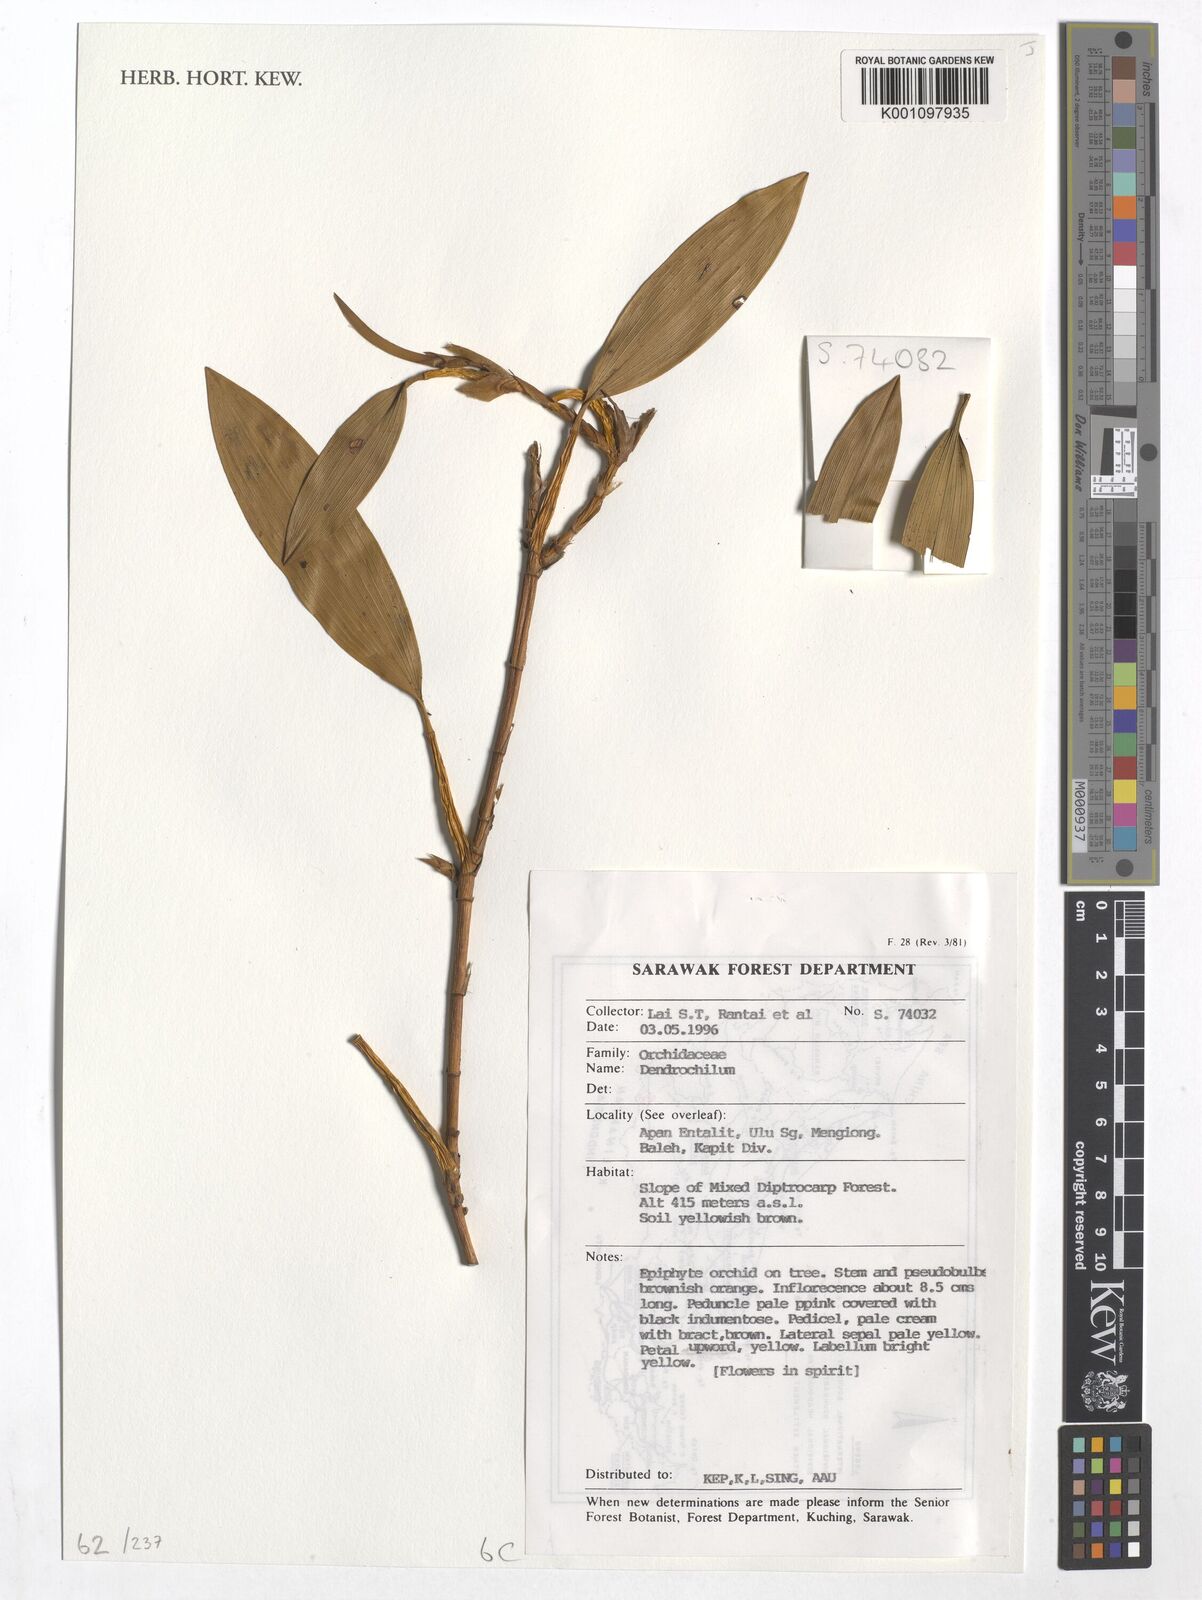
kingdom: Plantae
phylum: Tracheophyta
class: Liliopsida
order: Asparagales
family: Orchidaceae
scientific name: Orchidaceae
